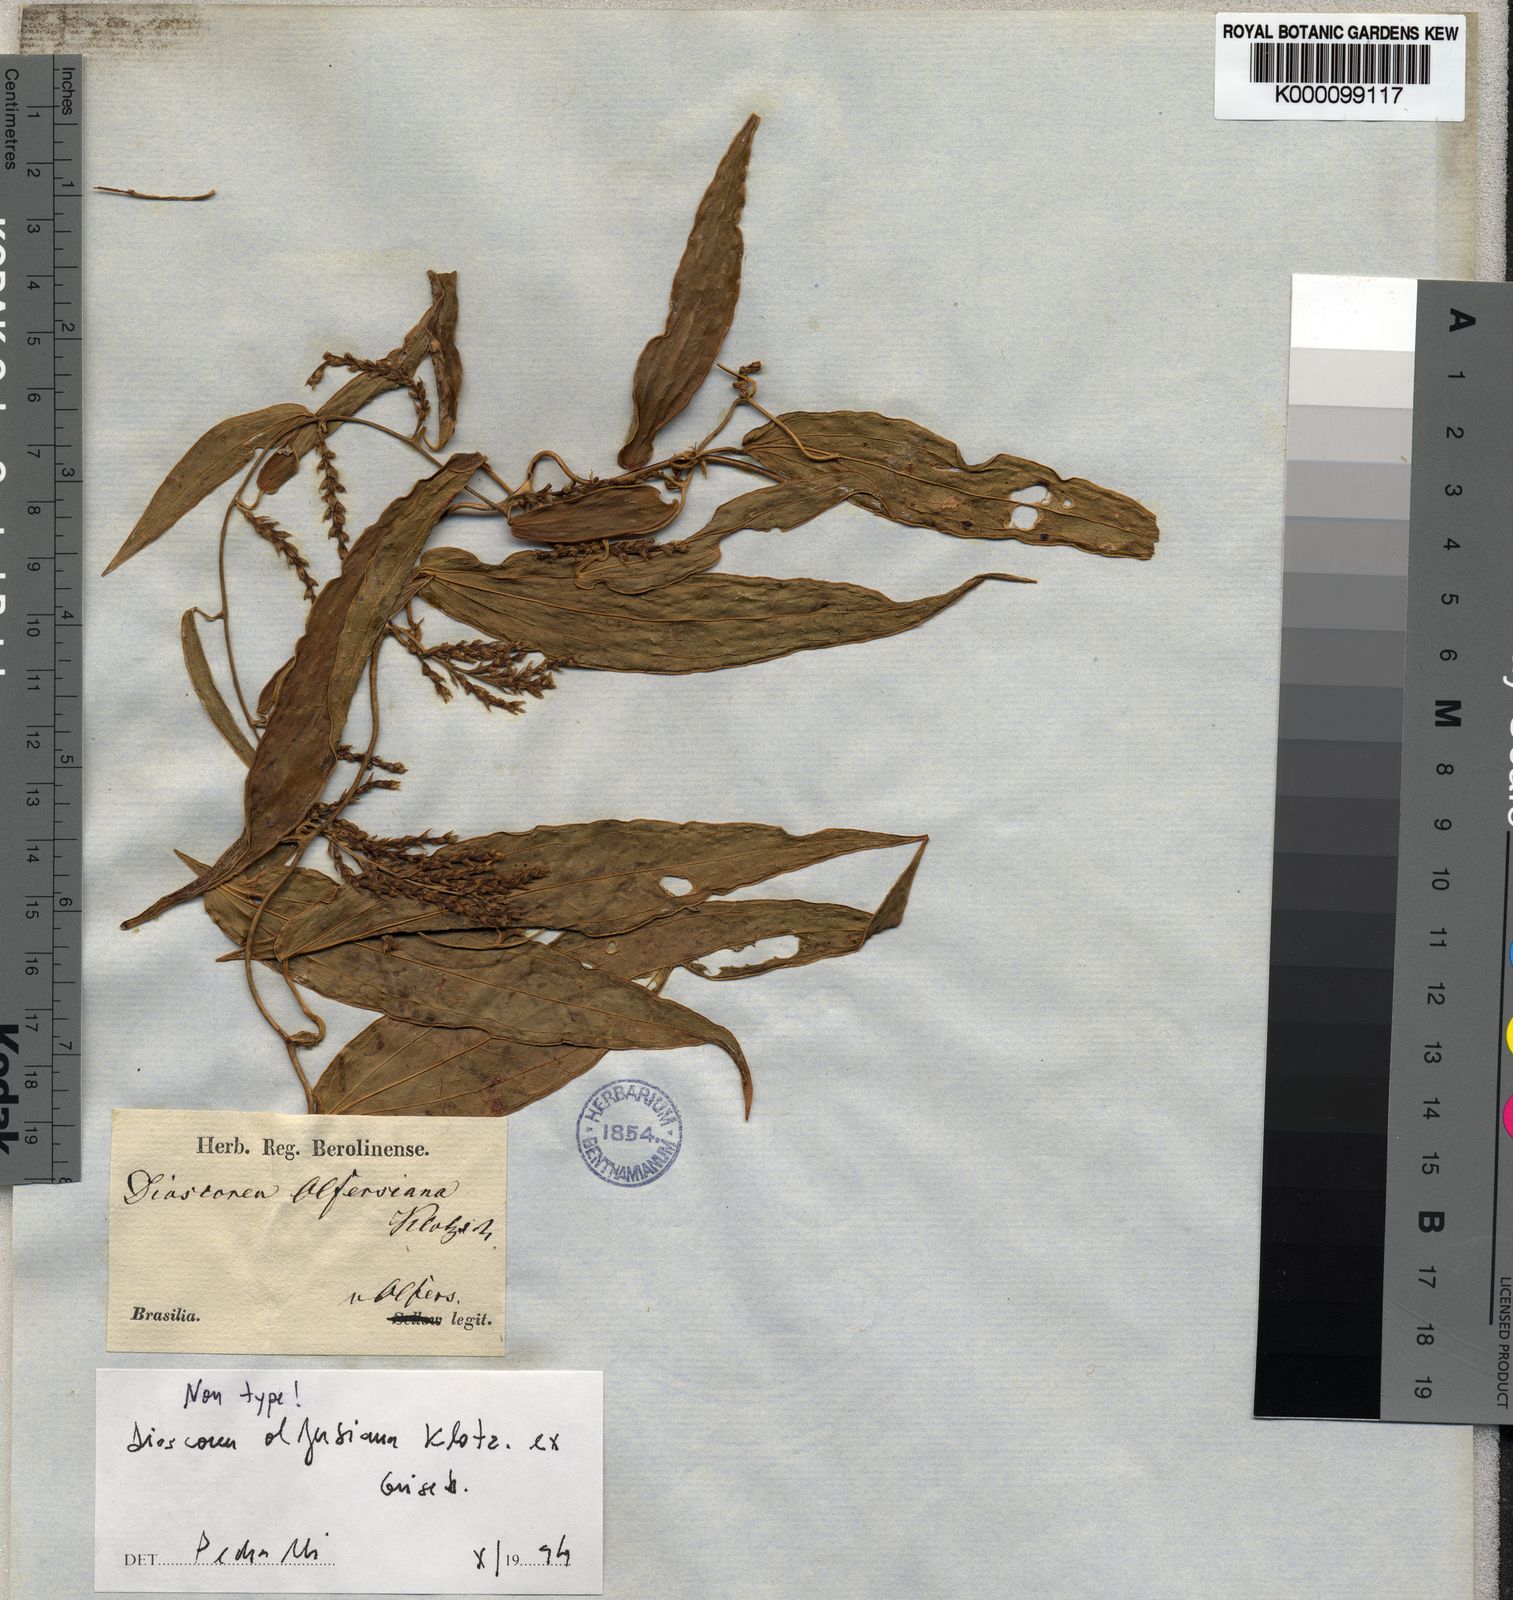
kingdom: Plantae
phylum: Tracheophyta
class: Liliopsida
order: Dioscoreales
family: Dioscoreaceae
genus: Dioscorea
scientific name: Dioscorea olfersiana
